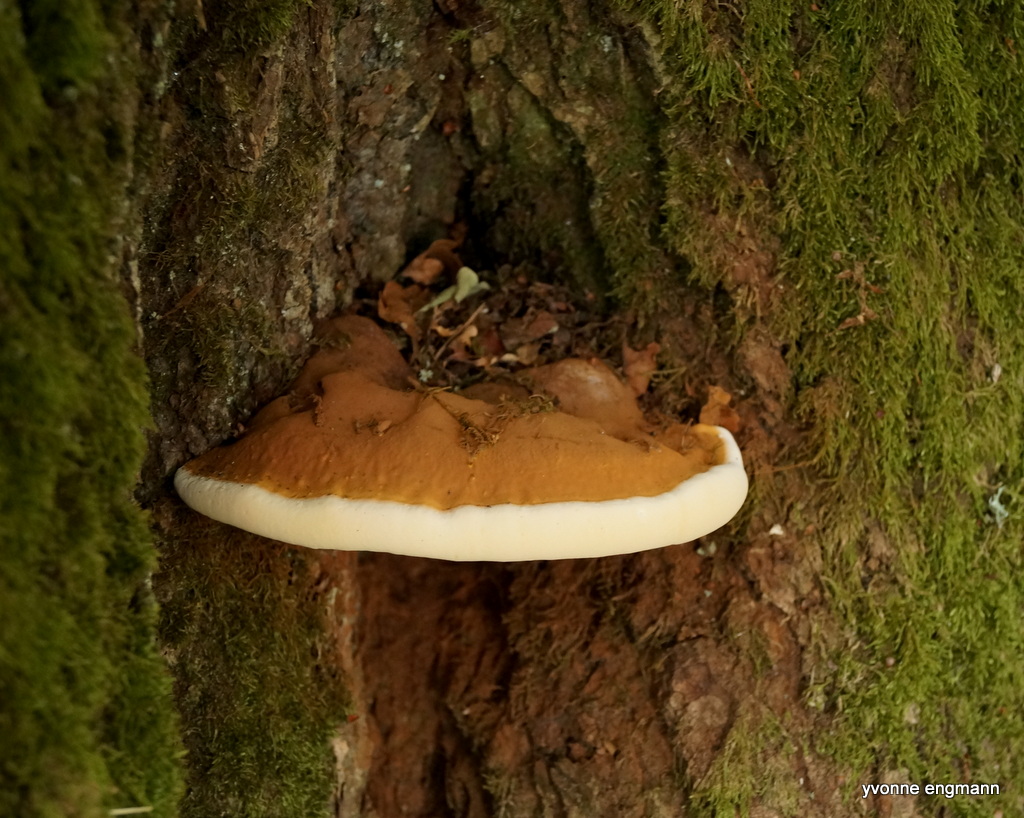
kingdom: Fungi
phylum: Basidiomycota
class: Agaricomycetes
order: Polyporales
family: Polyporaceae
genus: Ganoderma
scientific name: Ganoderma resinaceum
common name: gyldenbrun lakporesvamp
